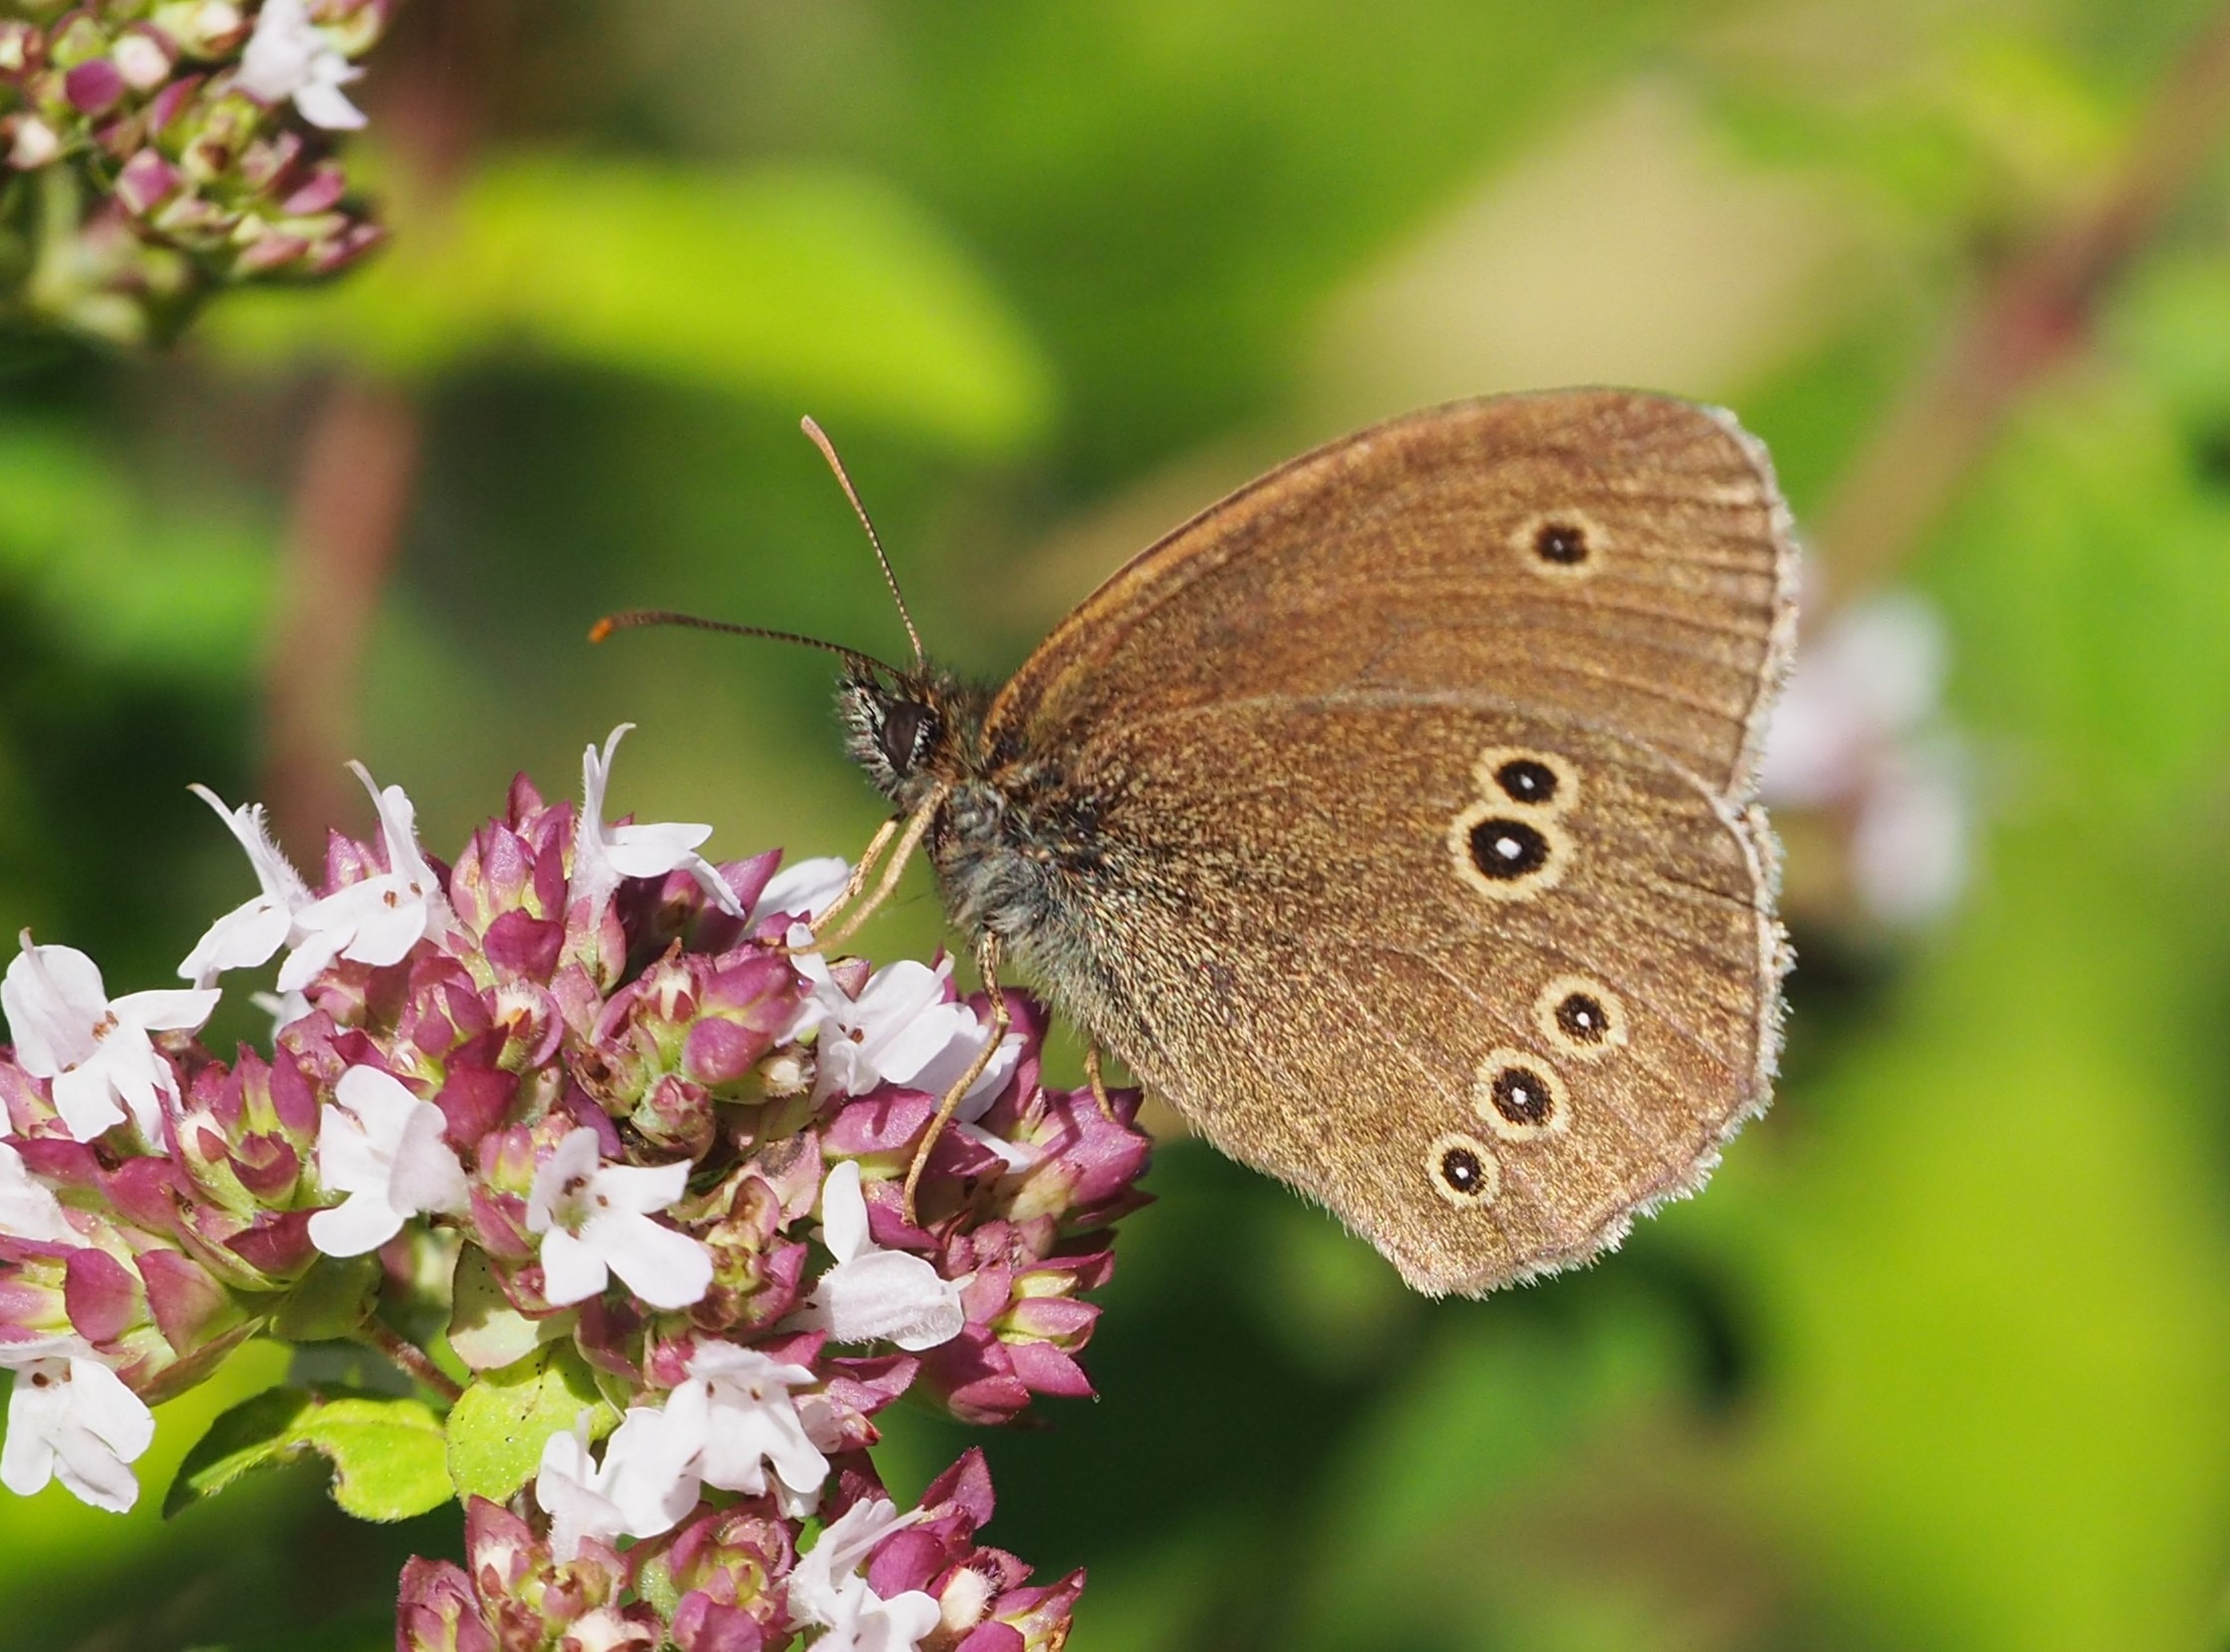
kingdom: Animalia
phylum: Arthropoda
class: Insecta
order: Lepidoptera
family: Nymphalidae
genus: Aphantopus
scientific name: Aphantopus hyperantus
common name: Engrandøje
